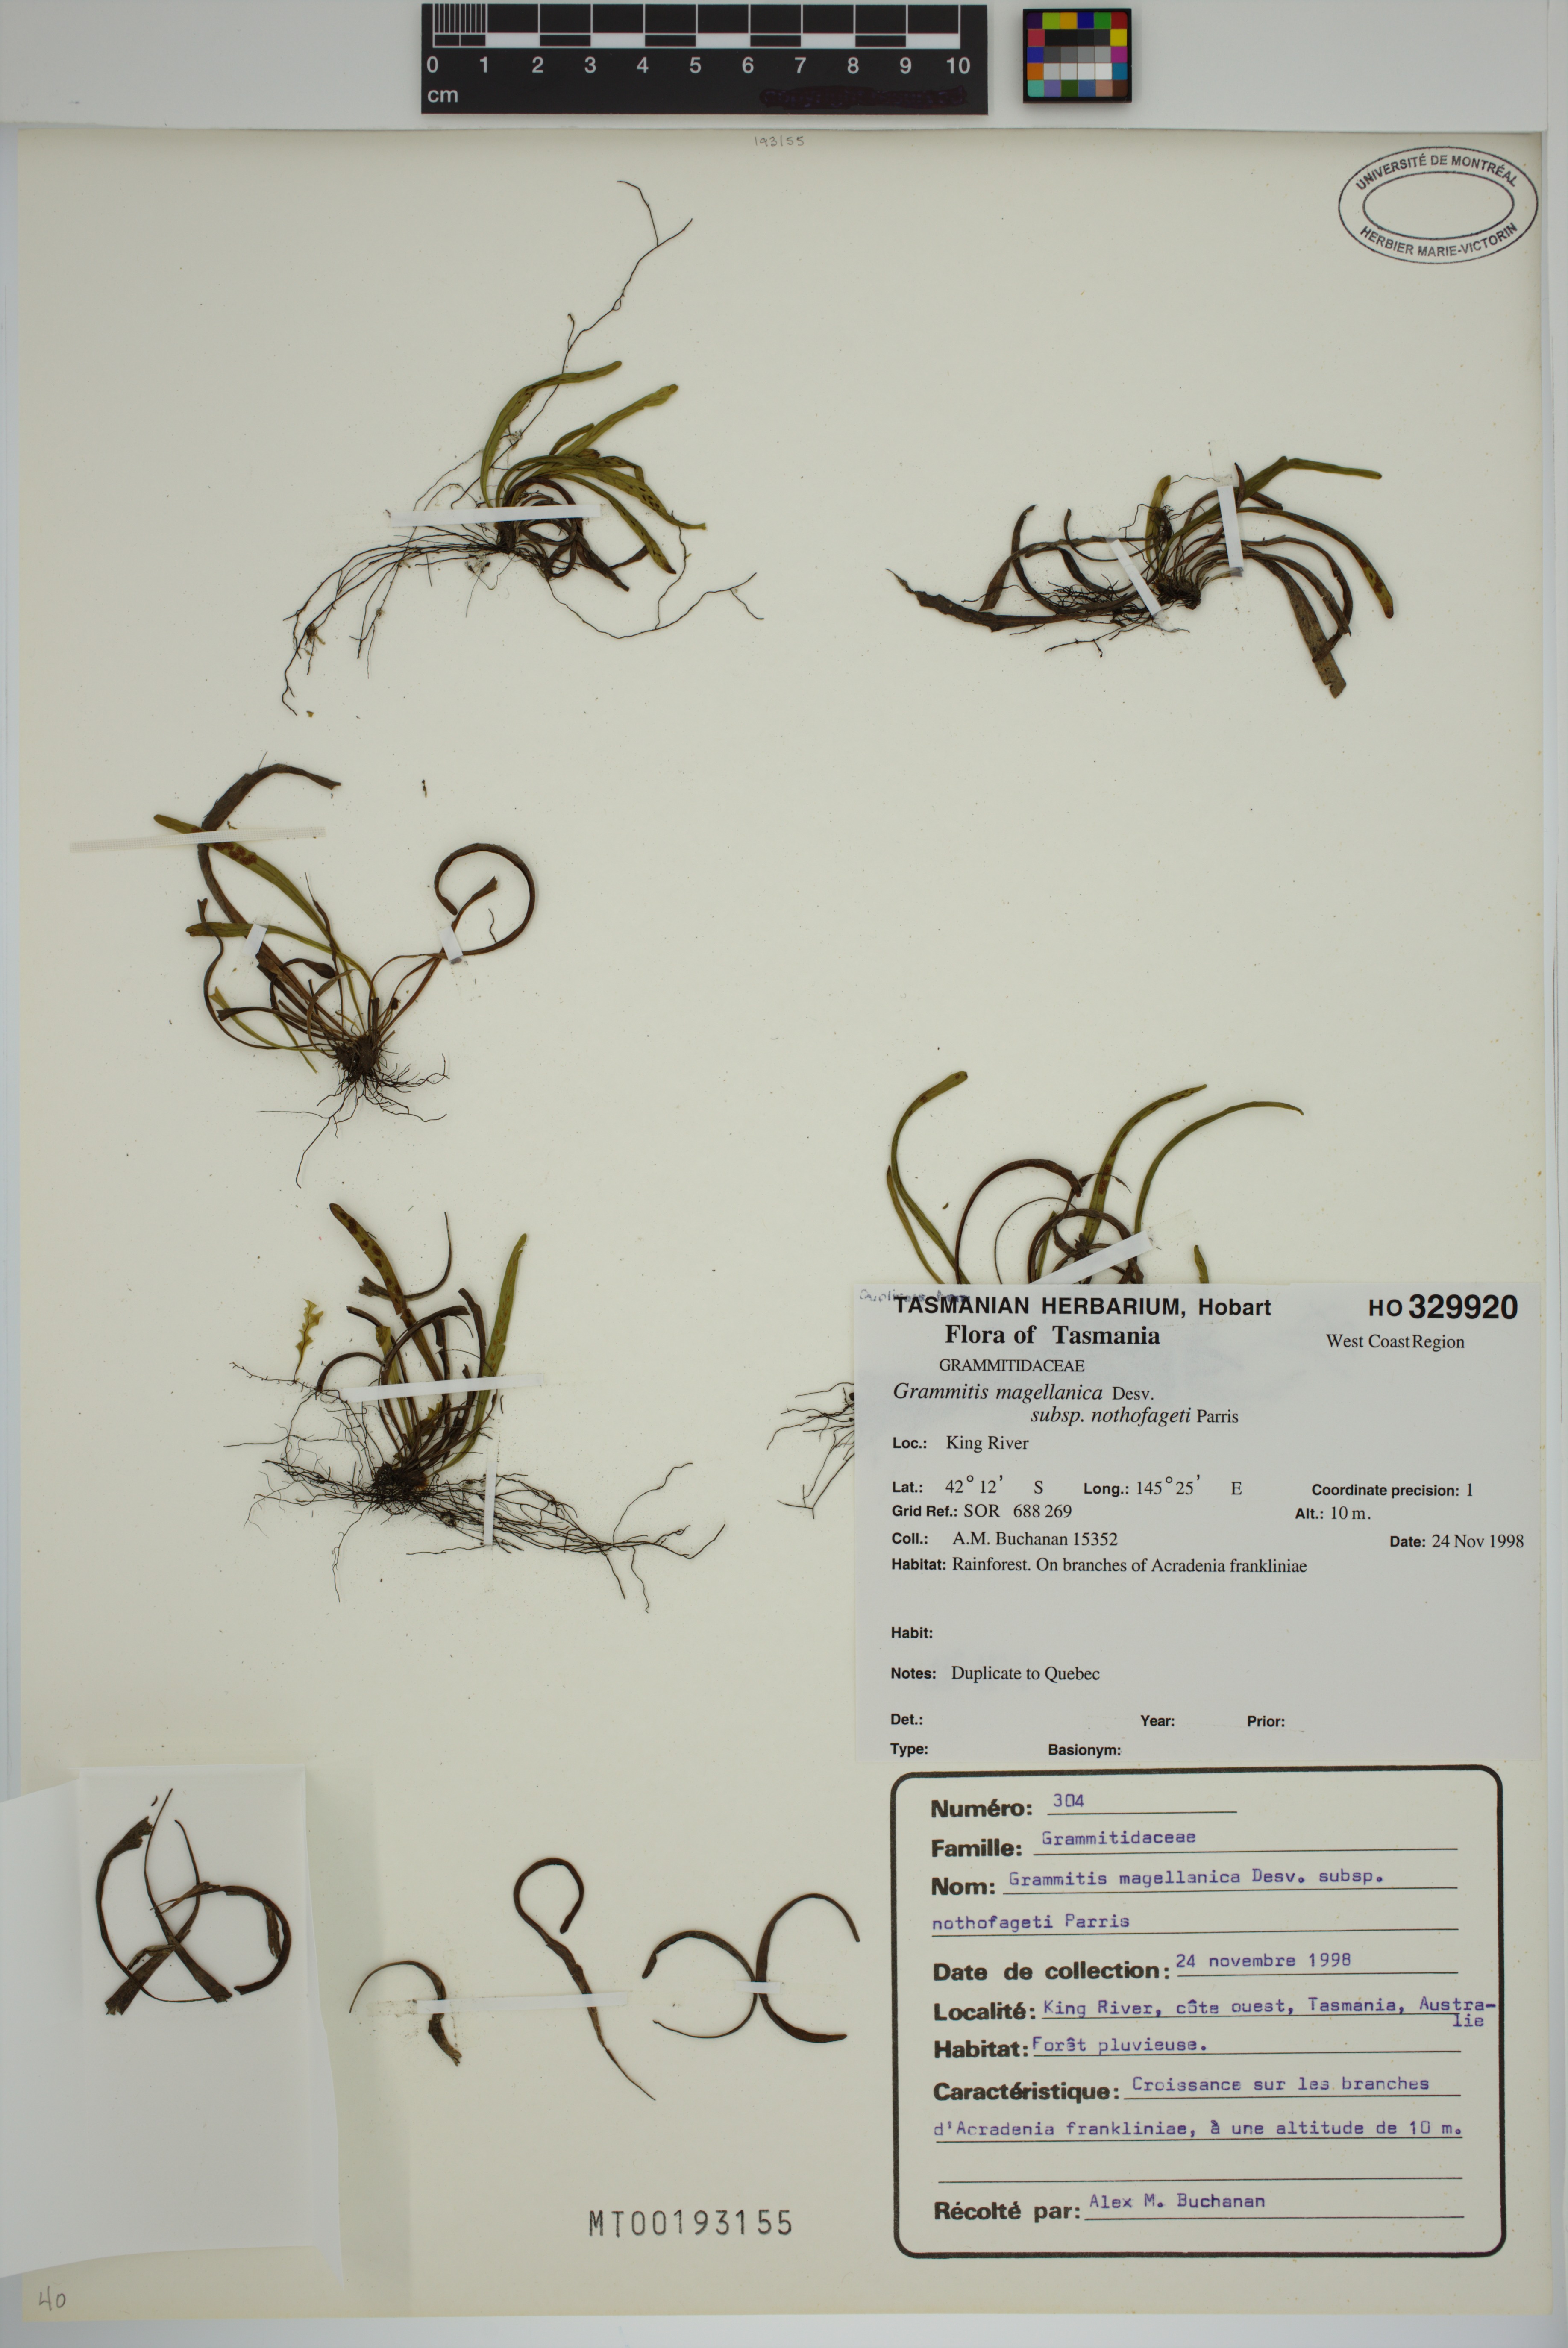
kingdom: Plantae
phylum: Tracheophyta
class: Polypodiopsida
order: Polypodiales
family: Polypodiaceae
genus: Notogrammitis
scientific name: Notogrammitis angustifolia
